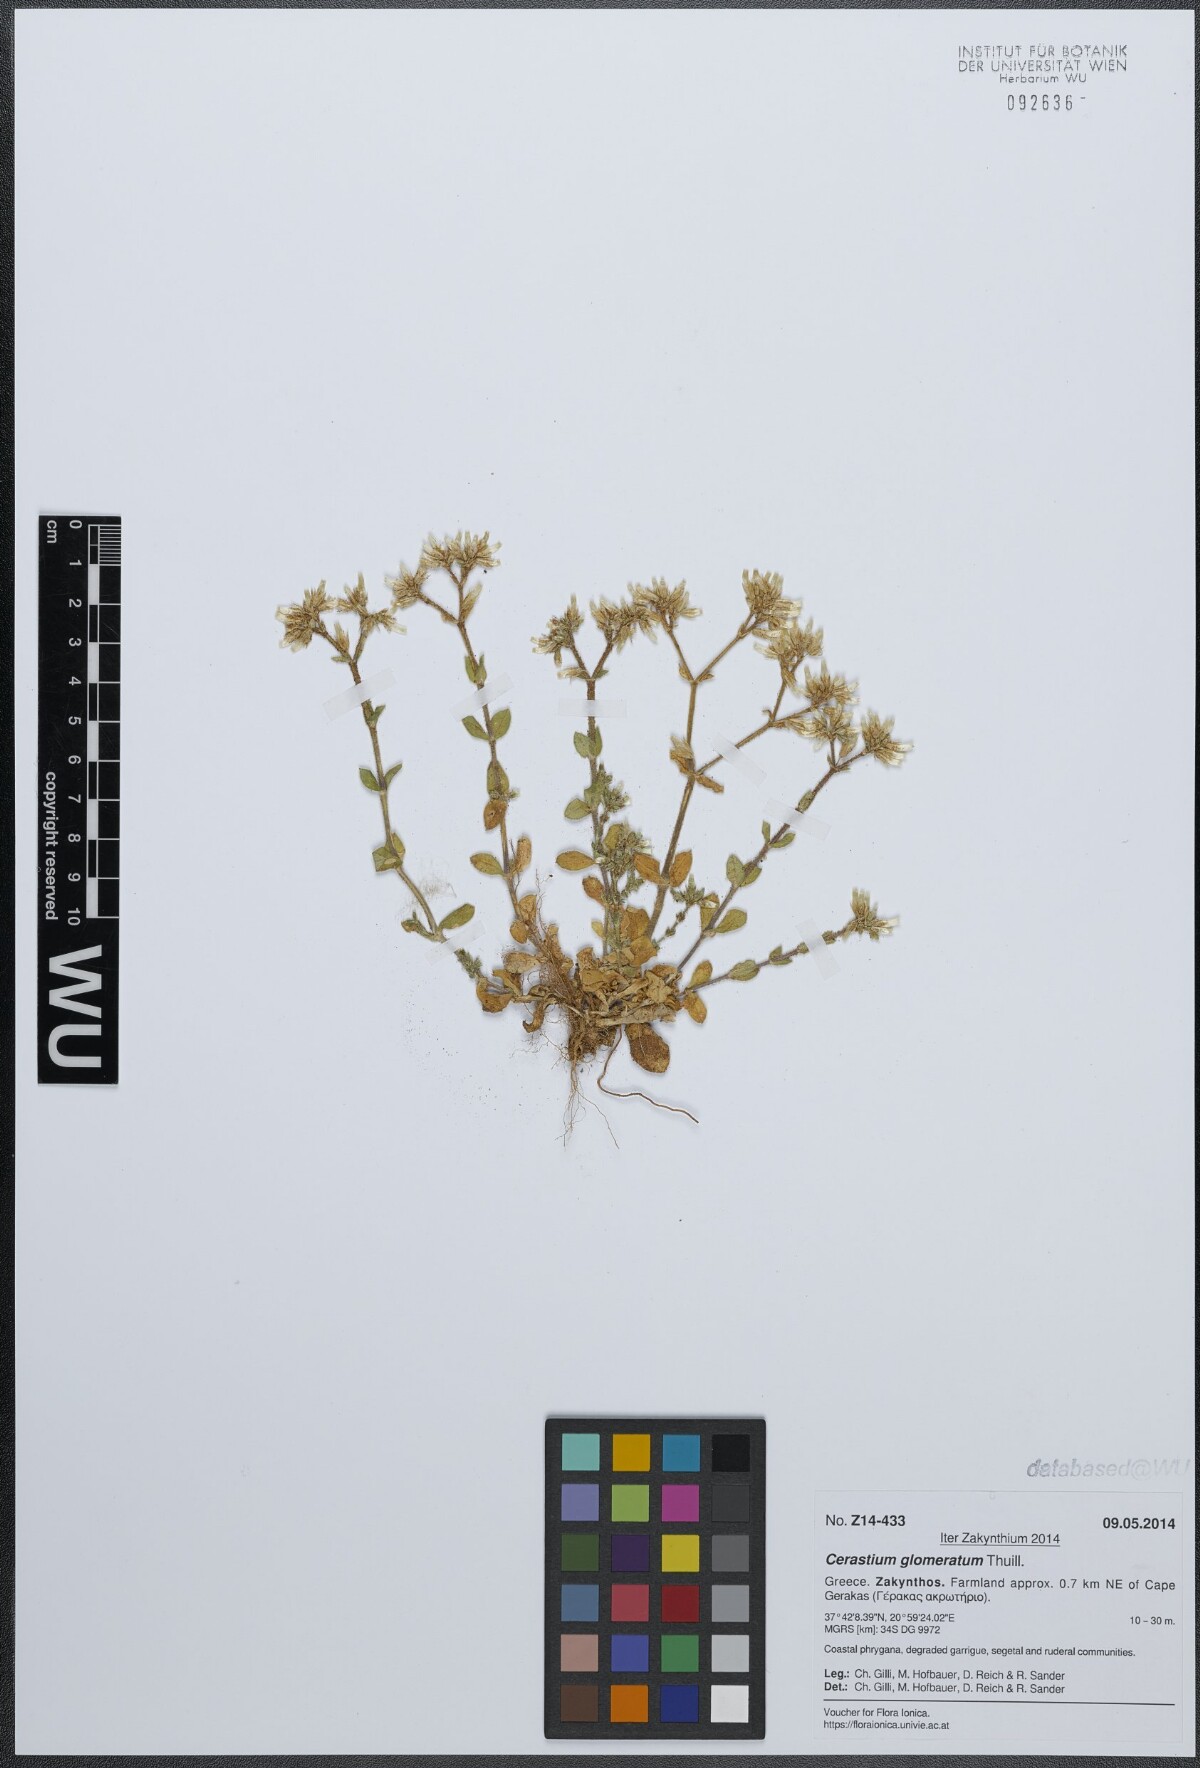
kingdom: Plantae
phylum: Tracheophyta
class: Magnoliopsida
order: Caryophyllales
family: Caryophyllaceae
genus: Cerastium
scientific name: Cerastium glomeratum
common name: Sticky chickweed
